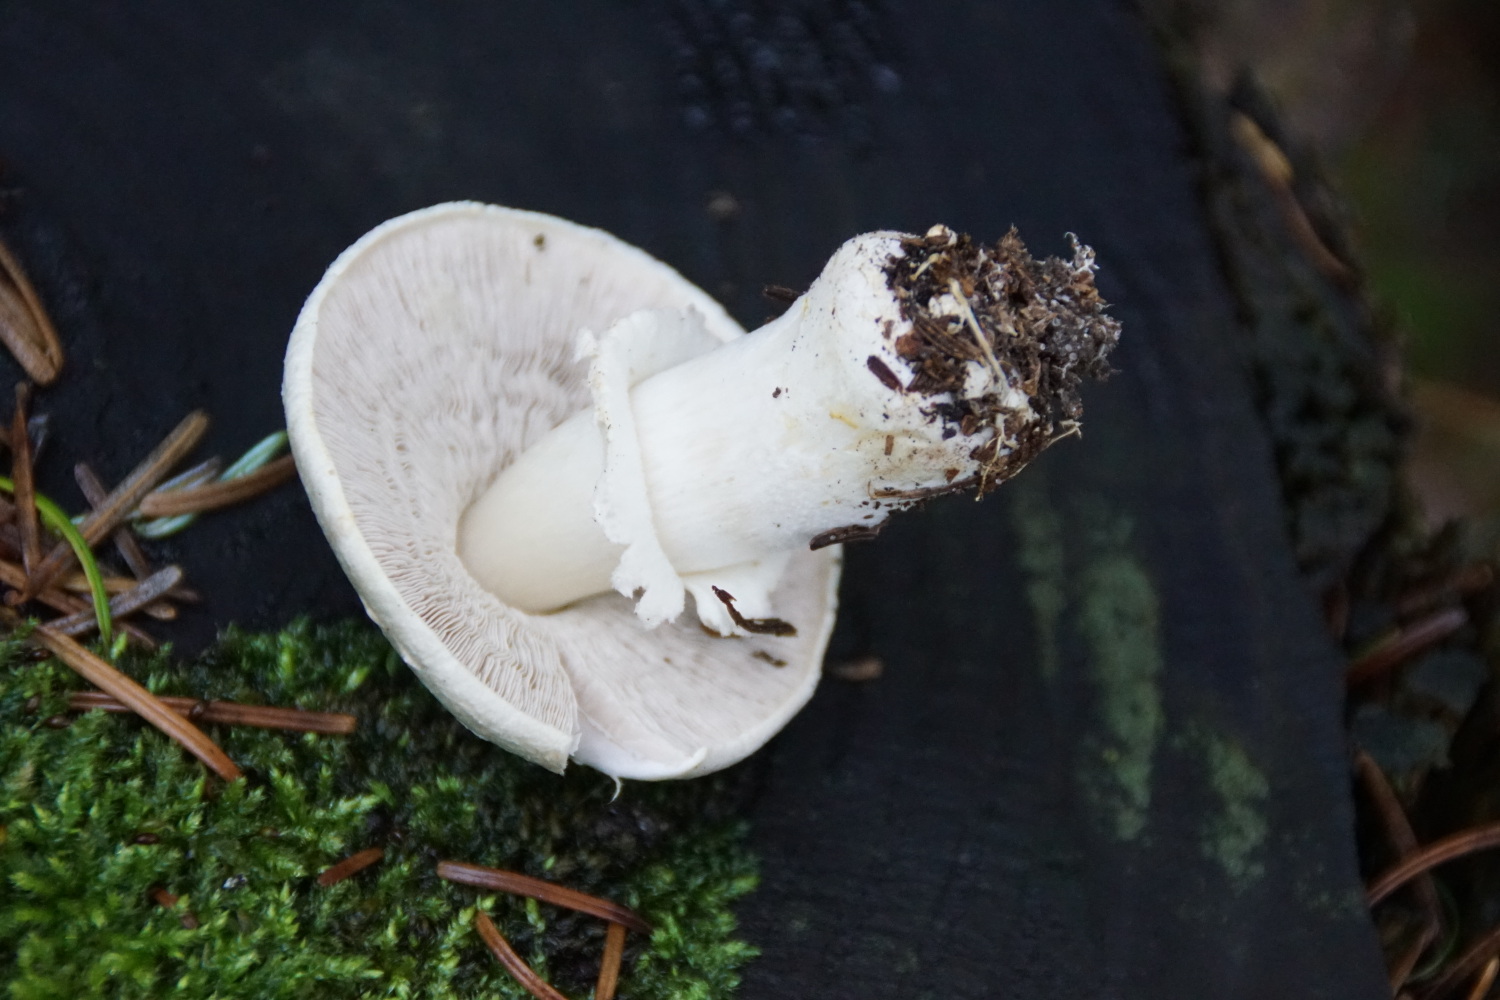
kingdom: Fungi
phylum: Basidiomycota
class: Agaricomycetes
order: Agaricales
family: Agaricaceae
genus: Agaricus
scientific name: Agaricus
